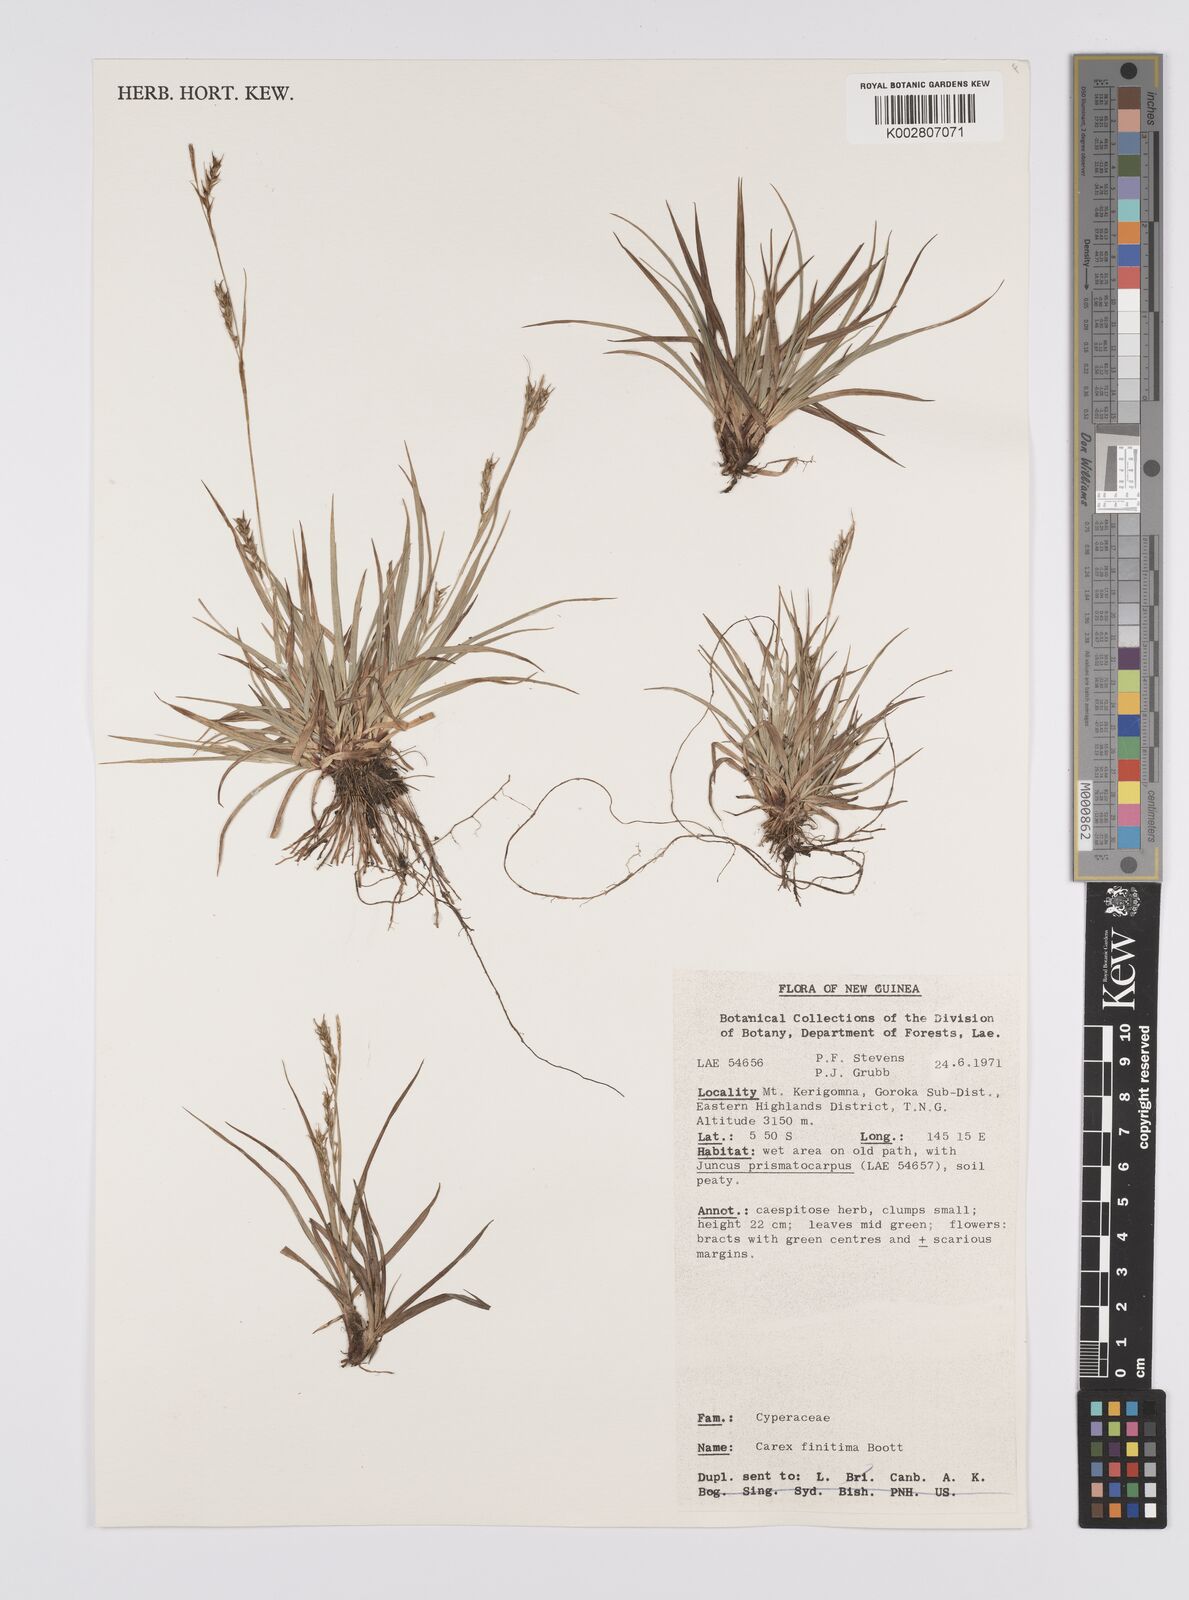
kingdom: Plantae
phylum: Tracheophyta
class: Liliopsida
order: Poales
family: Cyperaceae
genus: Carex
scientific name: Carex finitima
